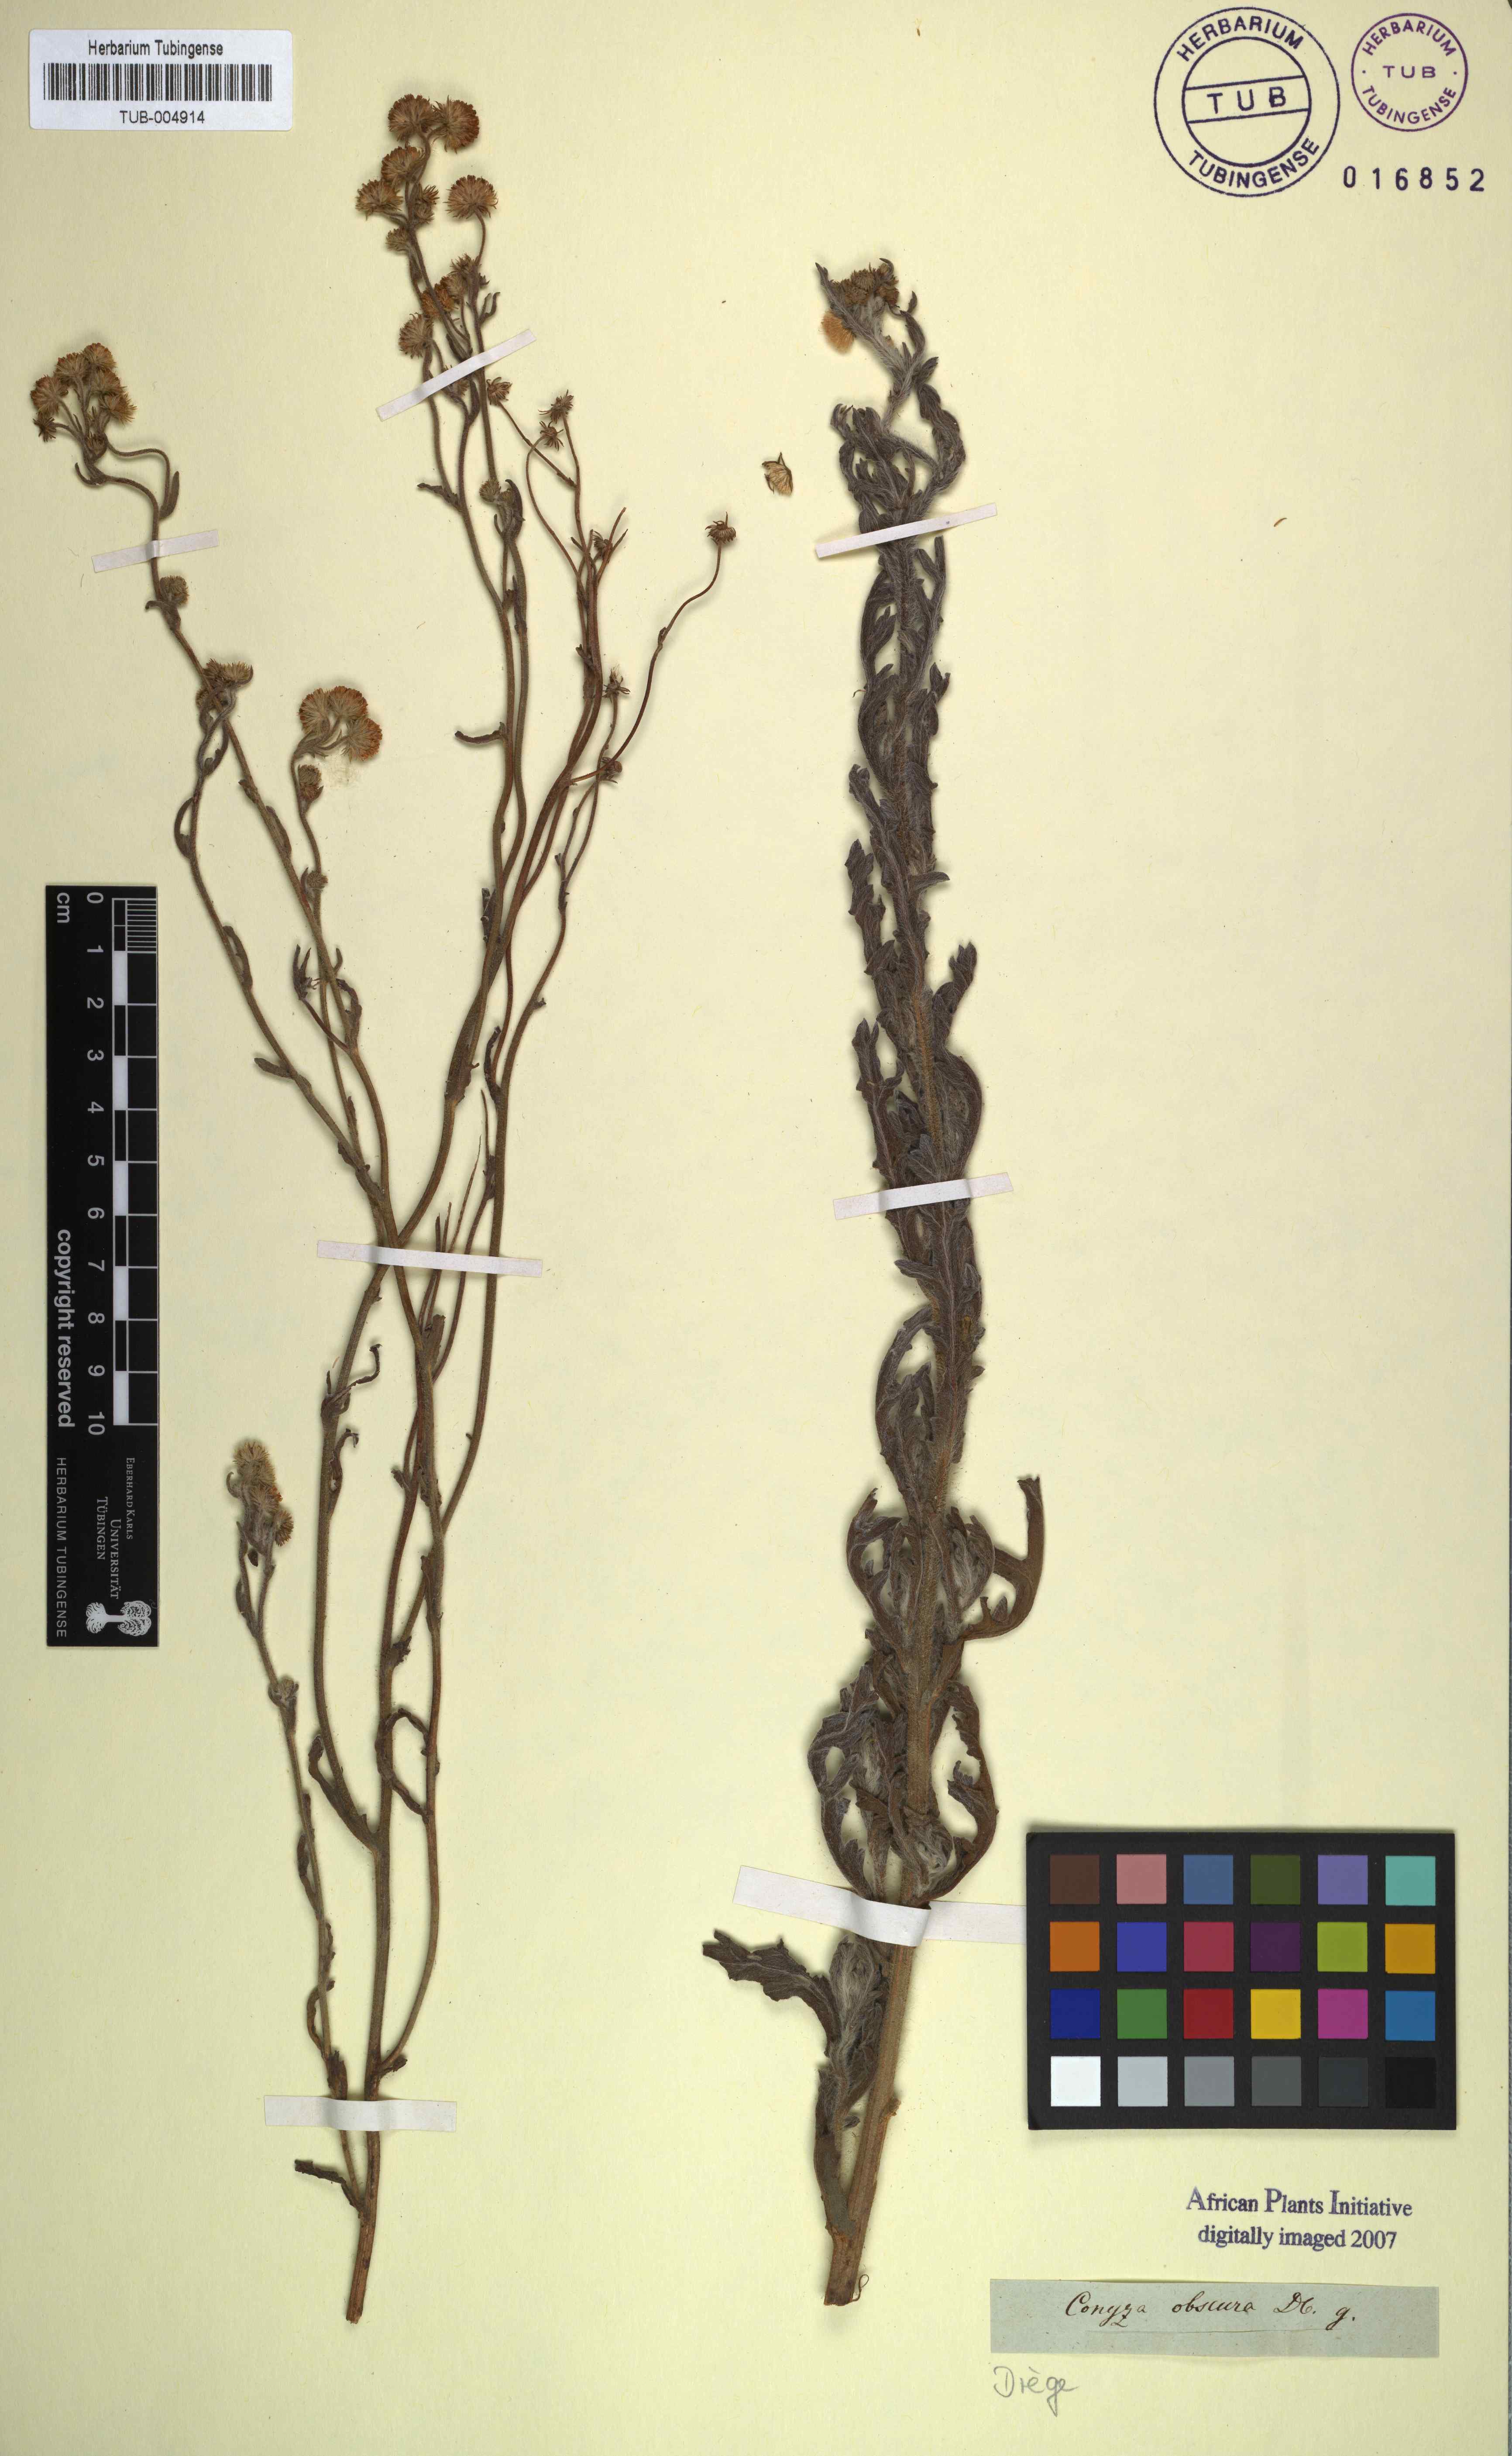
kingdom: Plantae
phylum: Tracheophyta
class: Magnoliopsida
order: Asterales
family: Asteraceae
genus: Nidorella
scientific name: Nidorella obscura
